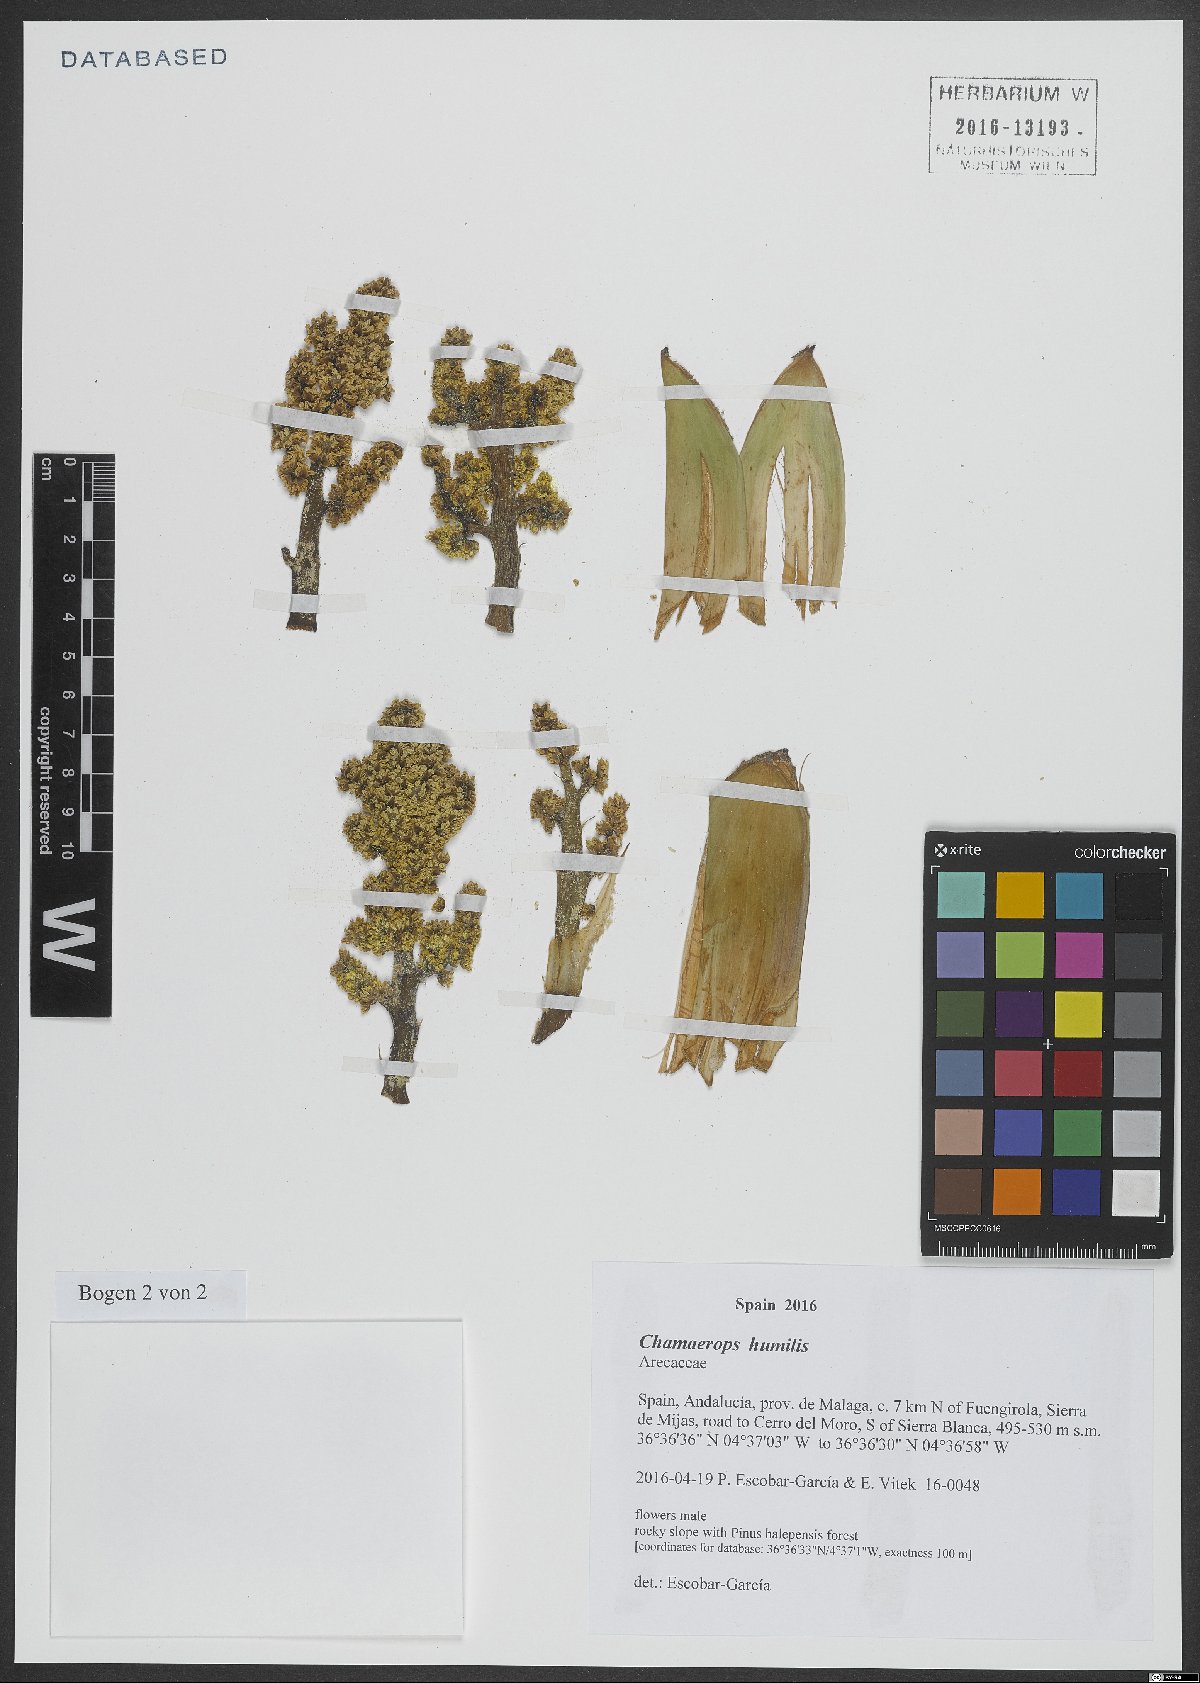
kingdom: Plantae
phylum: Tracheophyta
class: Liliopsida
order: Arecales
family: Arecaceae
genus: Chamaerops
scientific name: Chamaerops humilis
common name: Dwarf fan palm
